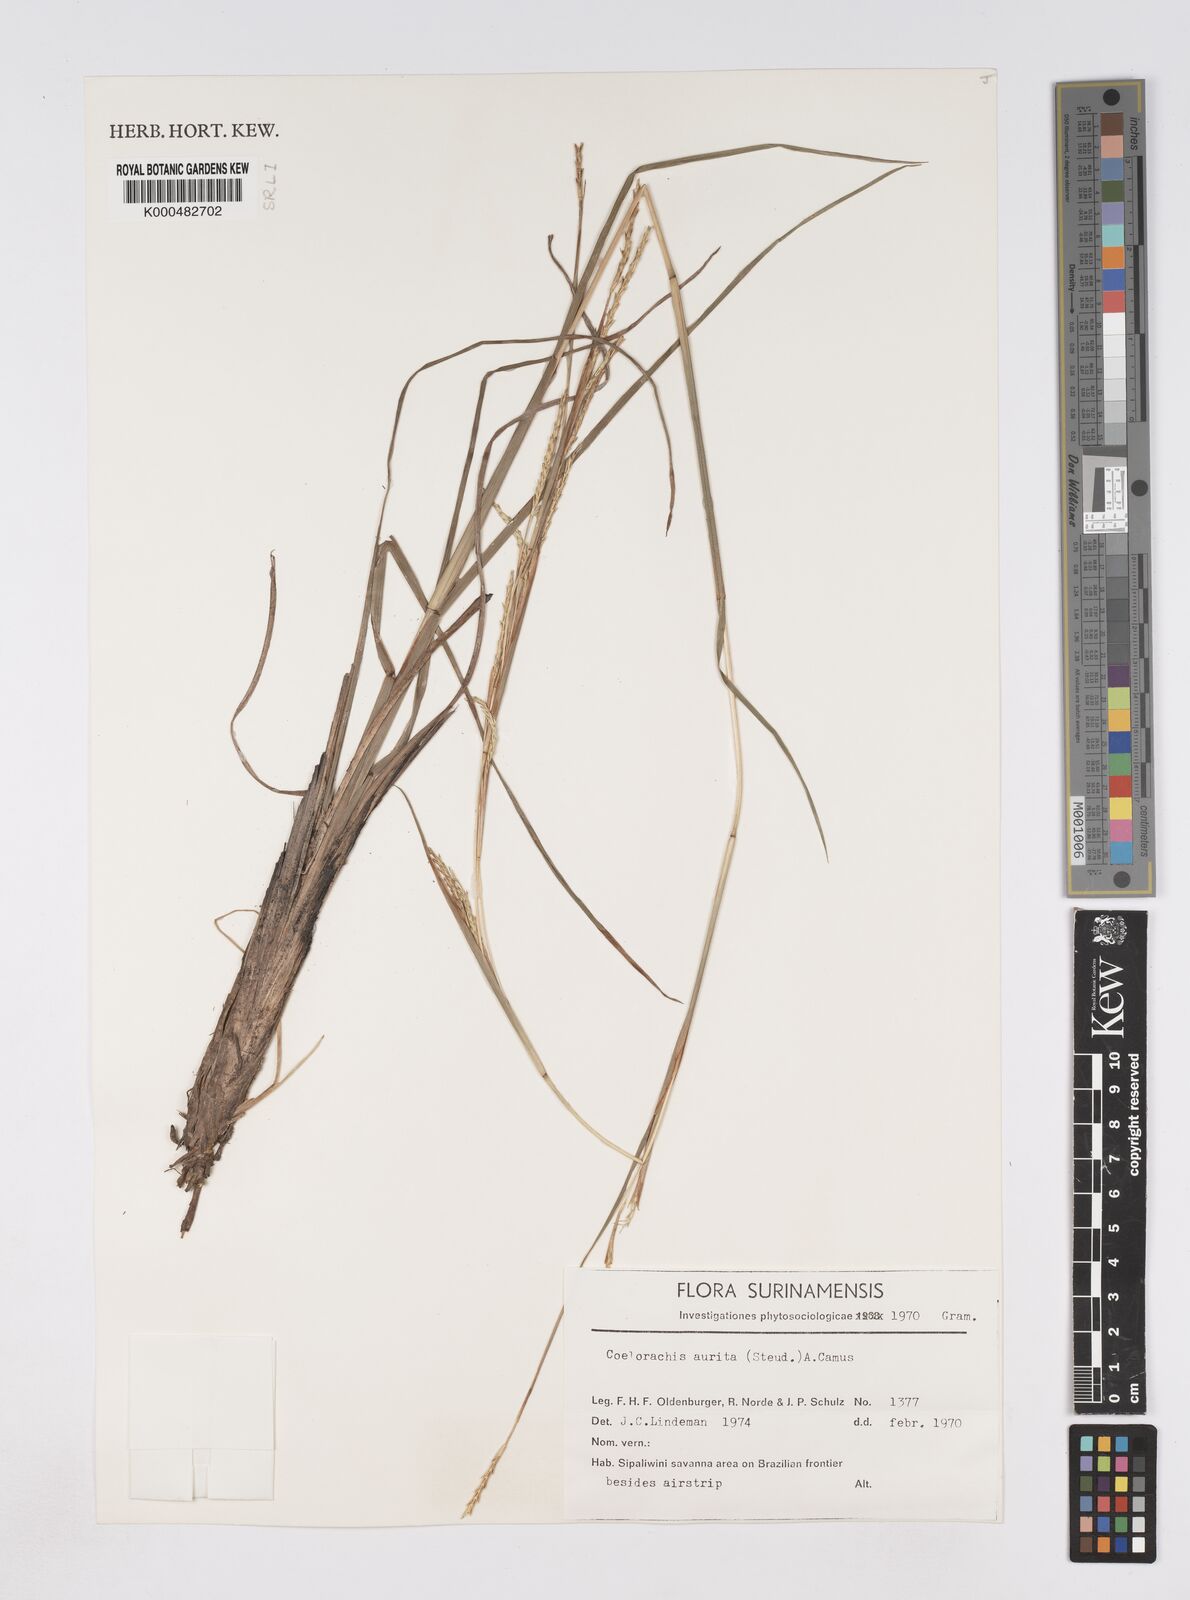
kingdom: Plantae
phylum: Tracheophyta
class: Liliopsida
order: Poales
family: Poaceae
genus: Rottboellia
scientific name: Rottboellia aurita
